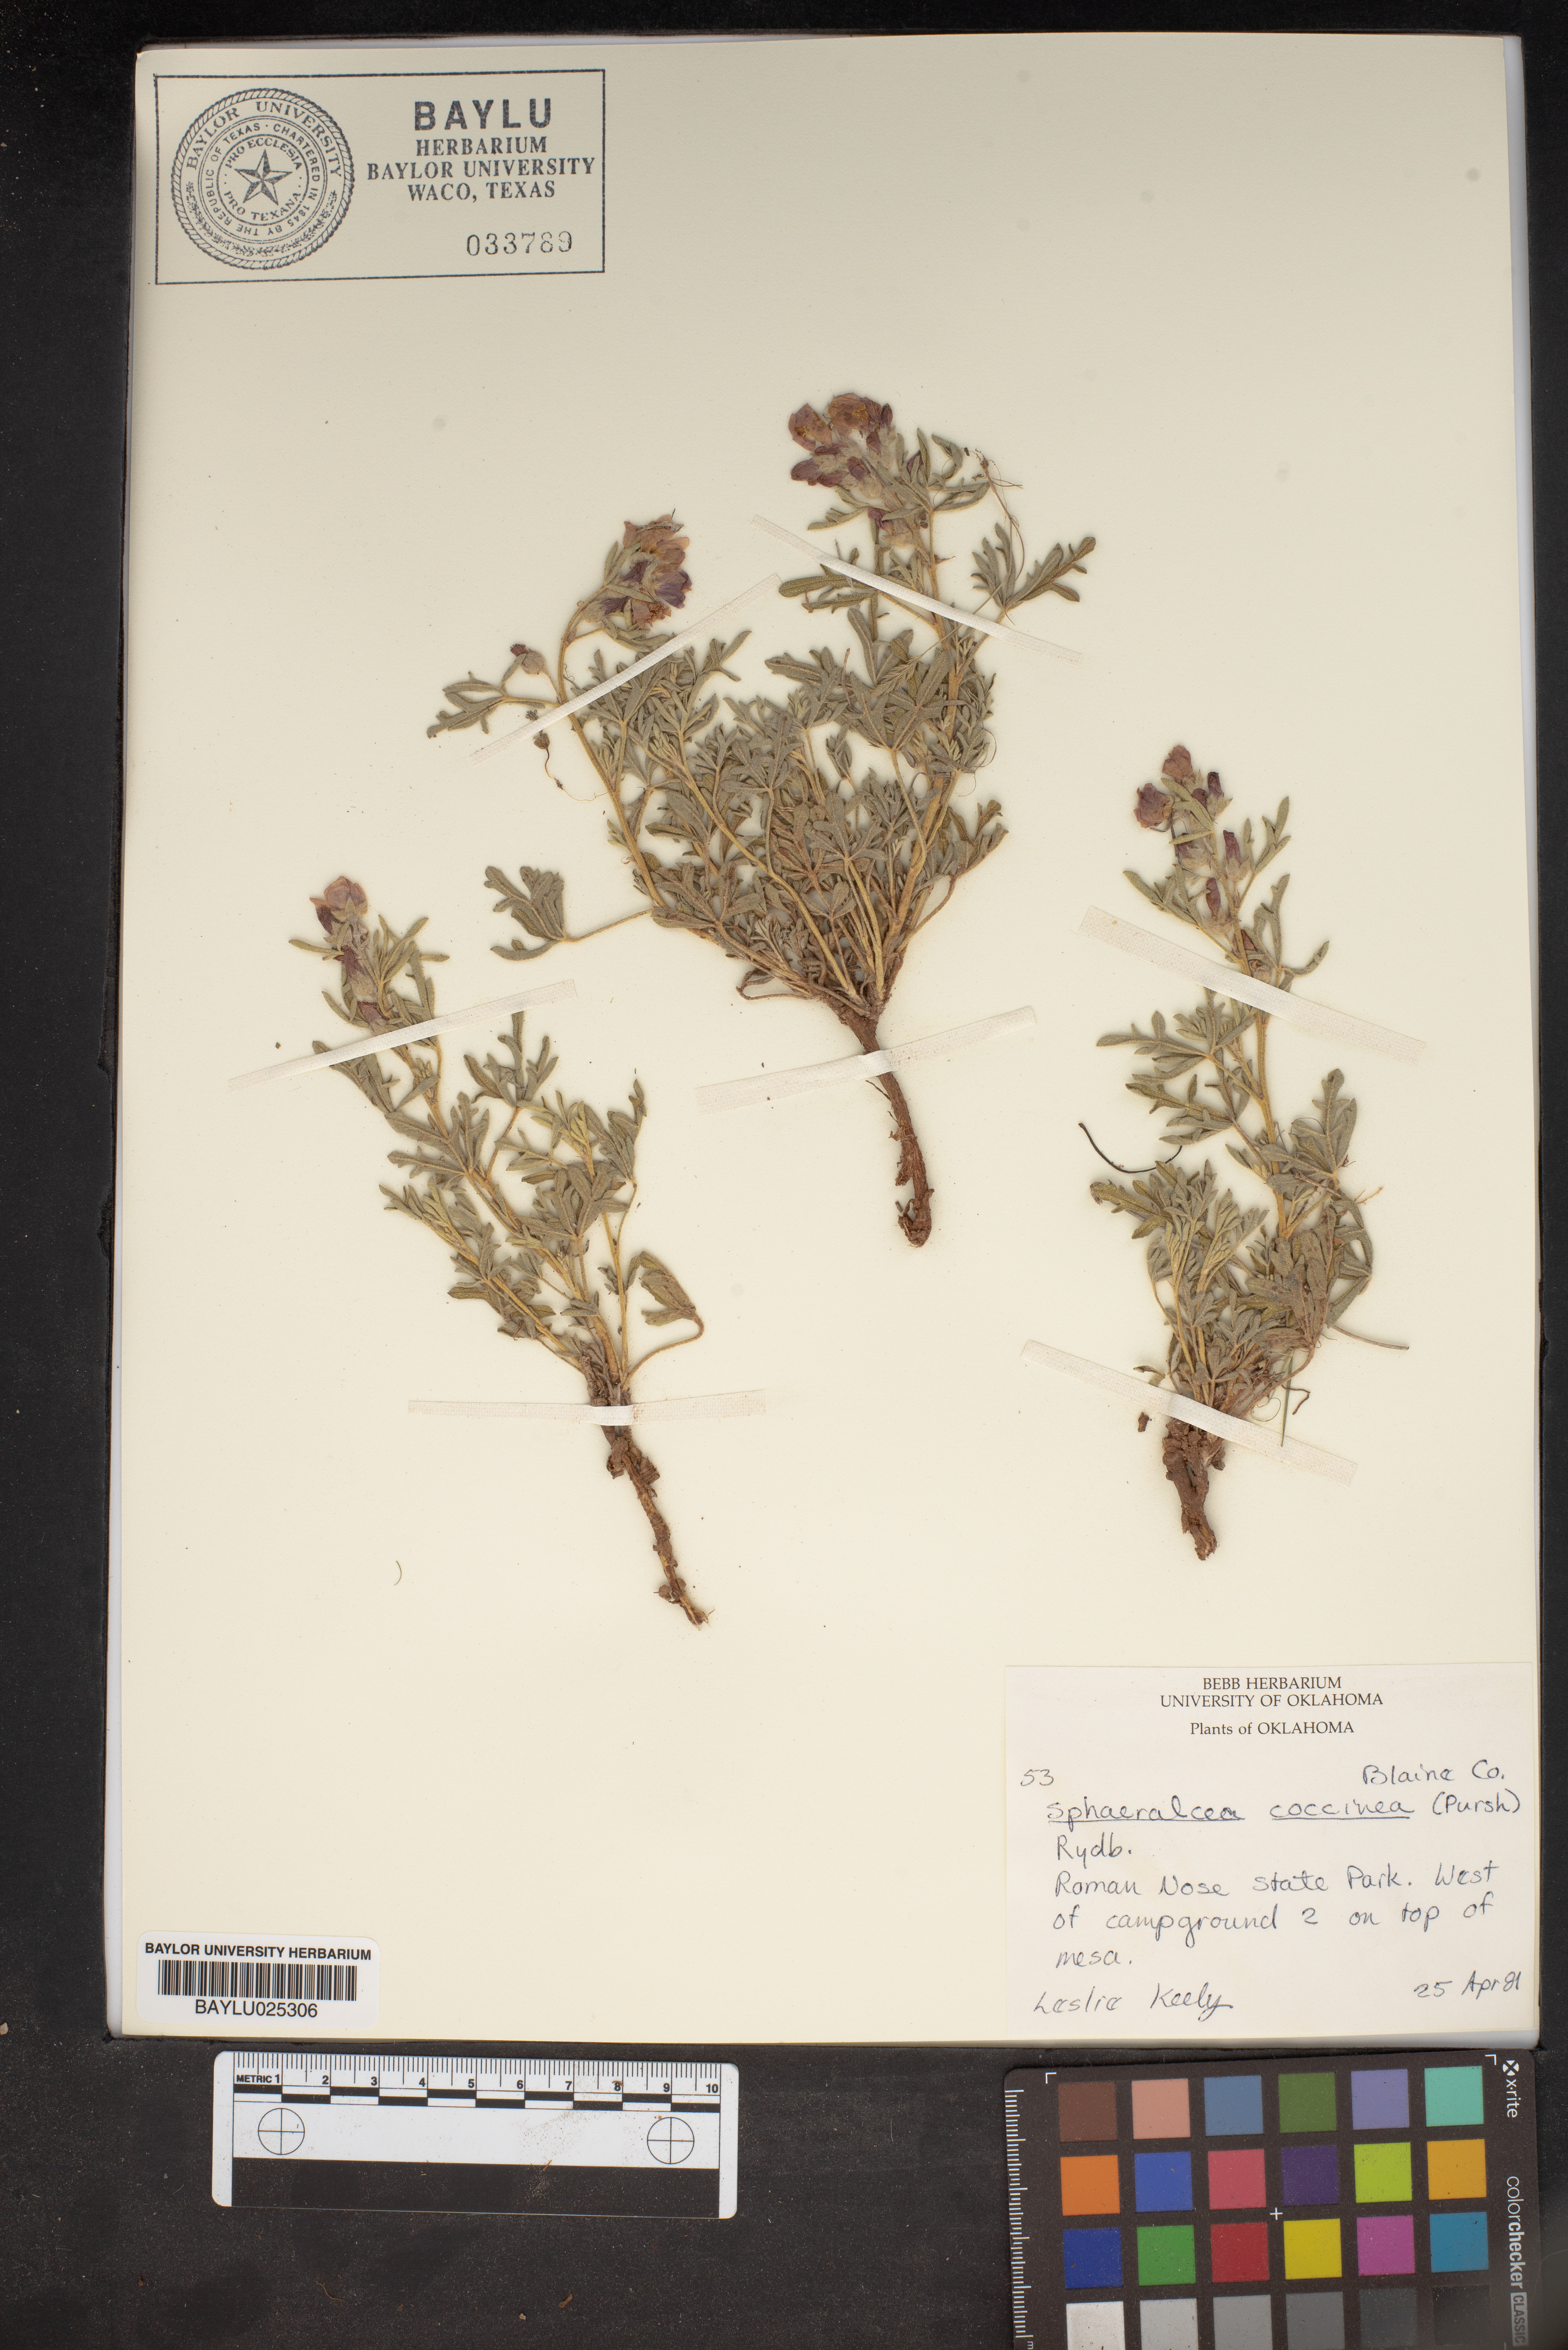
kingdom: Plantae
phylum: Tracheophyta
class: Magnoliopsida
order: Malvales
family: Malvaceae
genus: Sphaeralcea
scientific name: Sphaeralcea coccinea
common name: Moss-rose
